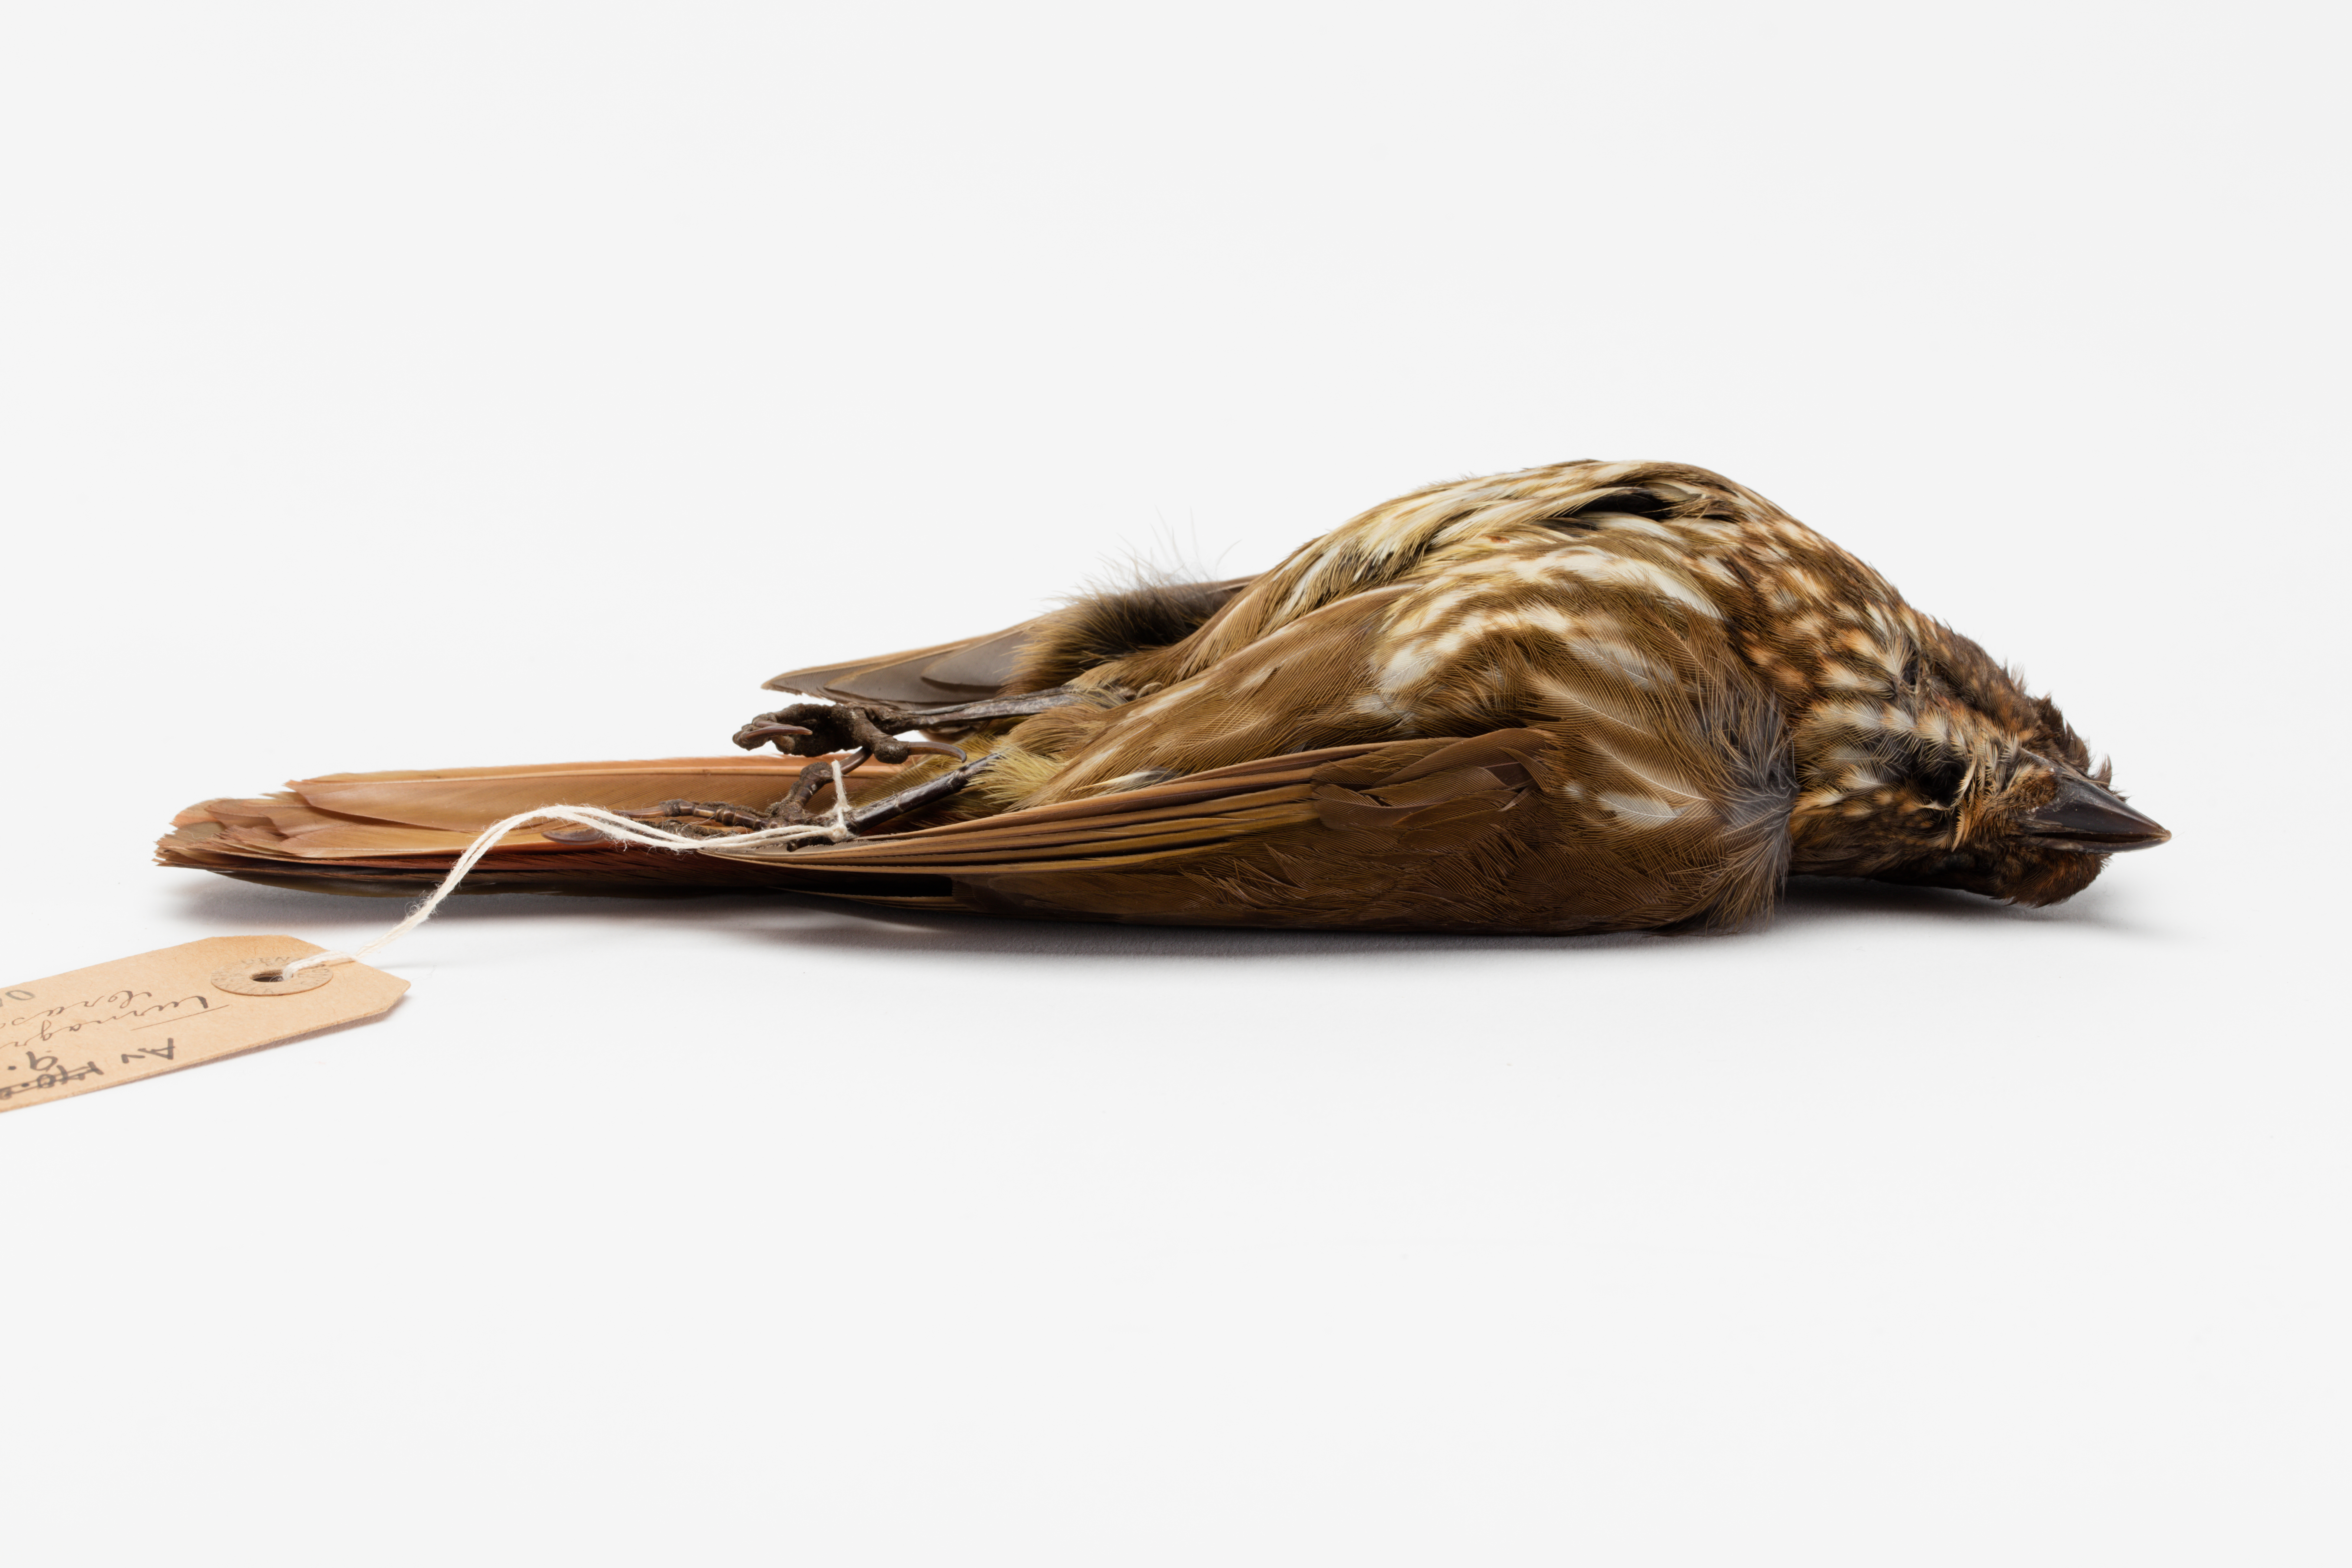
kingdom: Animalia
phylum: Chordata
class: Aves
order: Passeriformes
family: Ptilonorhynchidae
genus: Turnagra
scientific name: Turnagra capensis
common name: South island piopio
